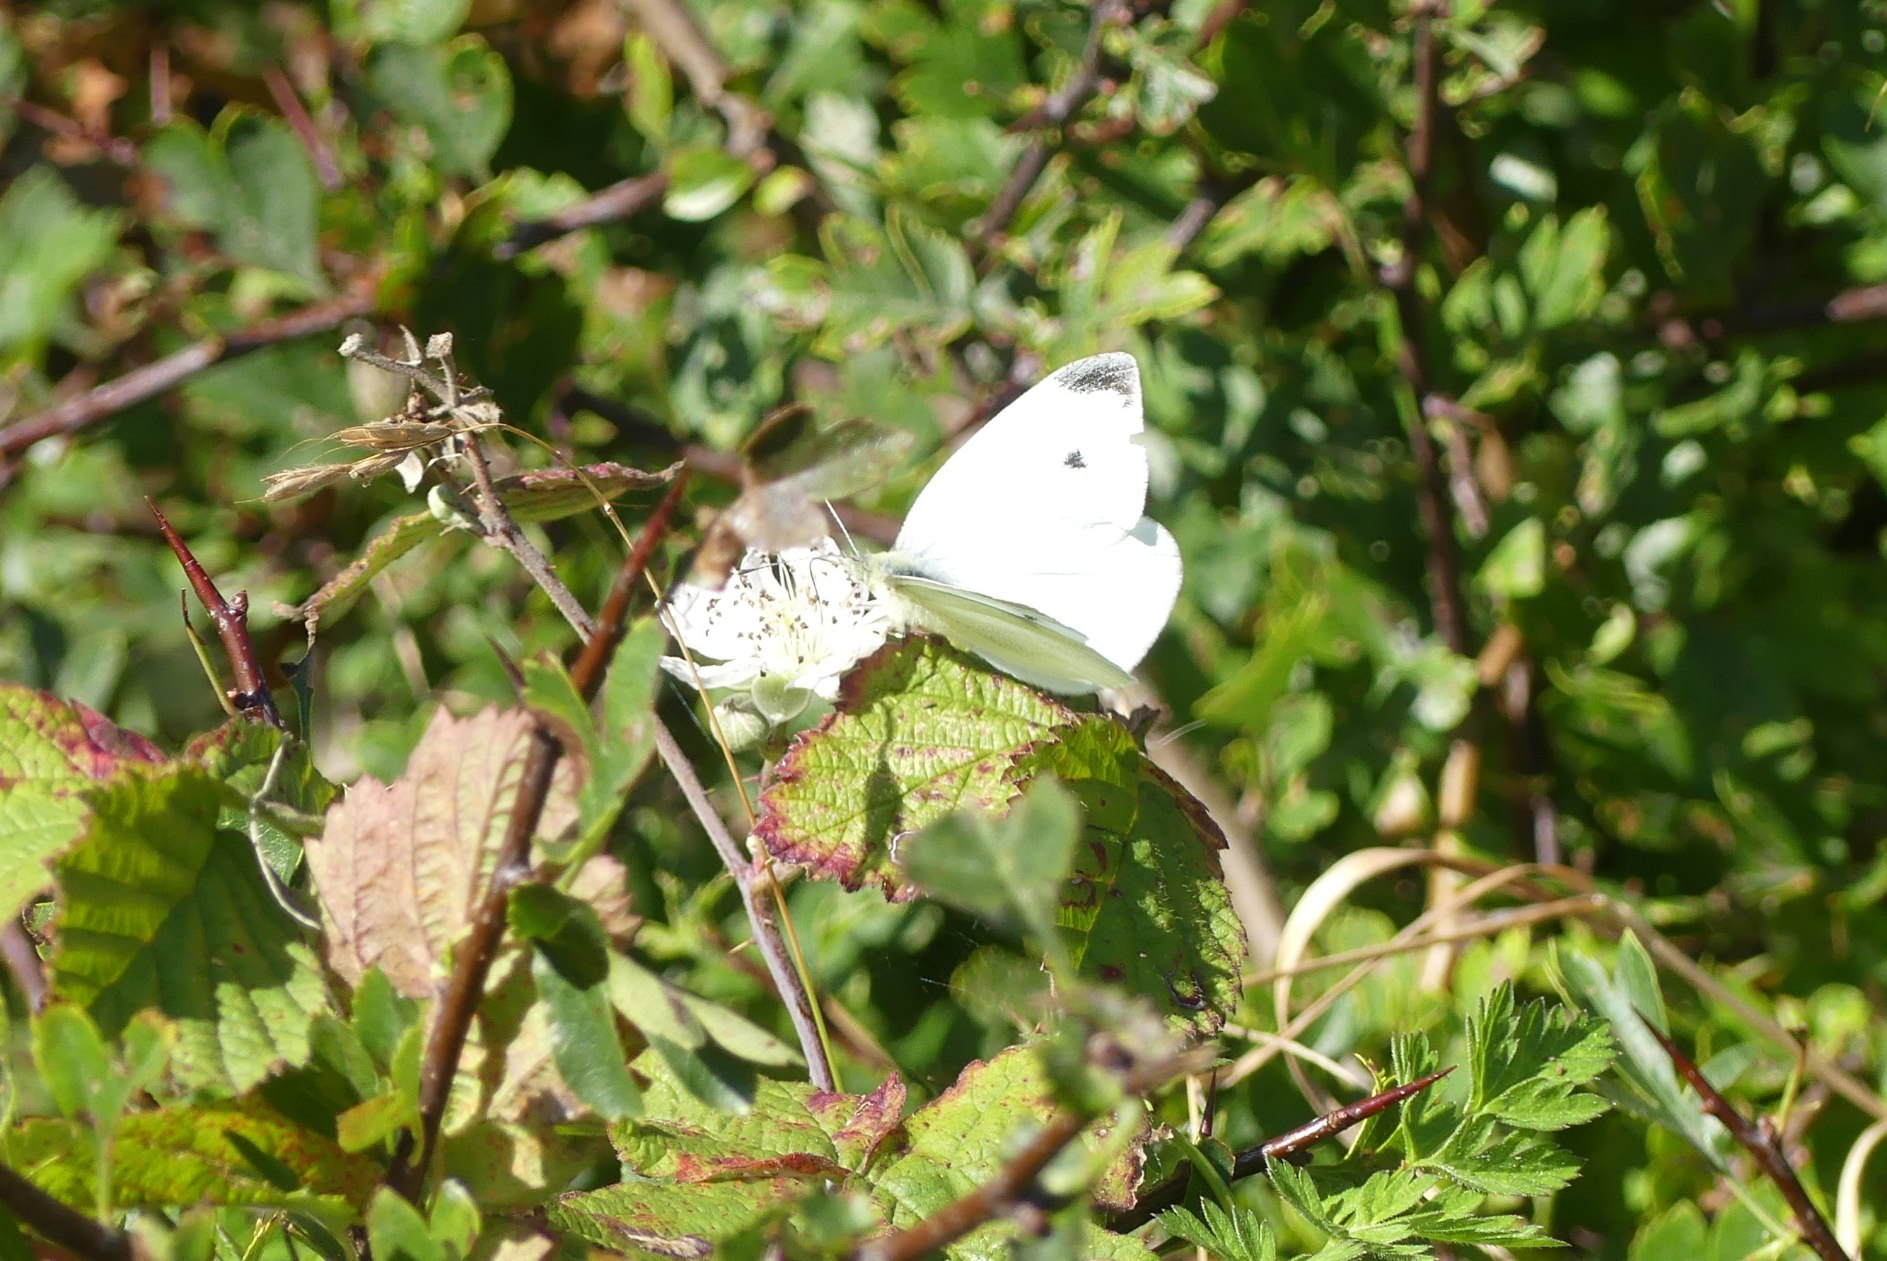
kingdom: Animalia
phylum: Arthropoda
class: Insecta
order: Lepidoptera
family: Pieridae
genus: Pieris
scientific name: Pieris rapae
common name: Lille kålsommerfugl
